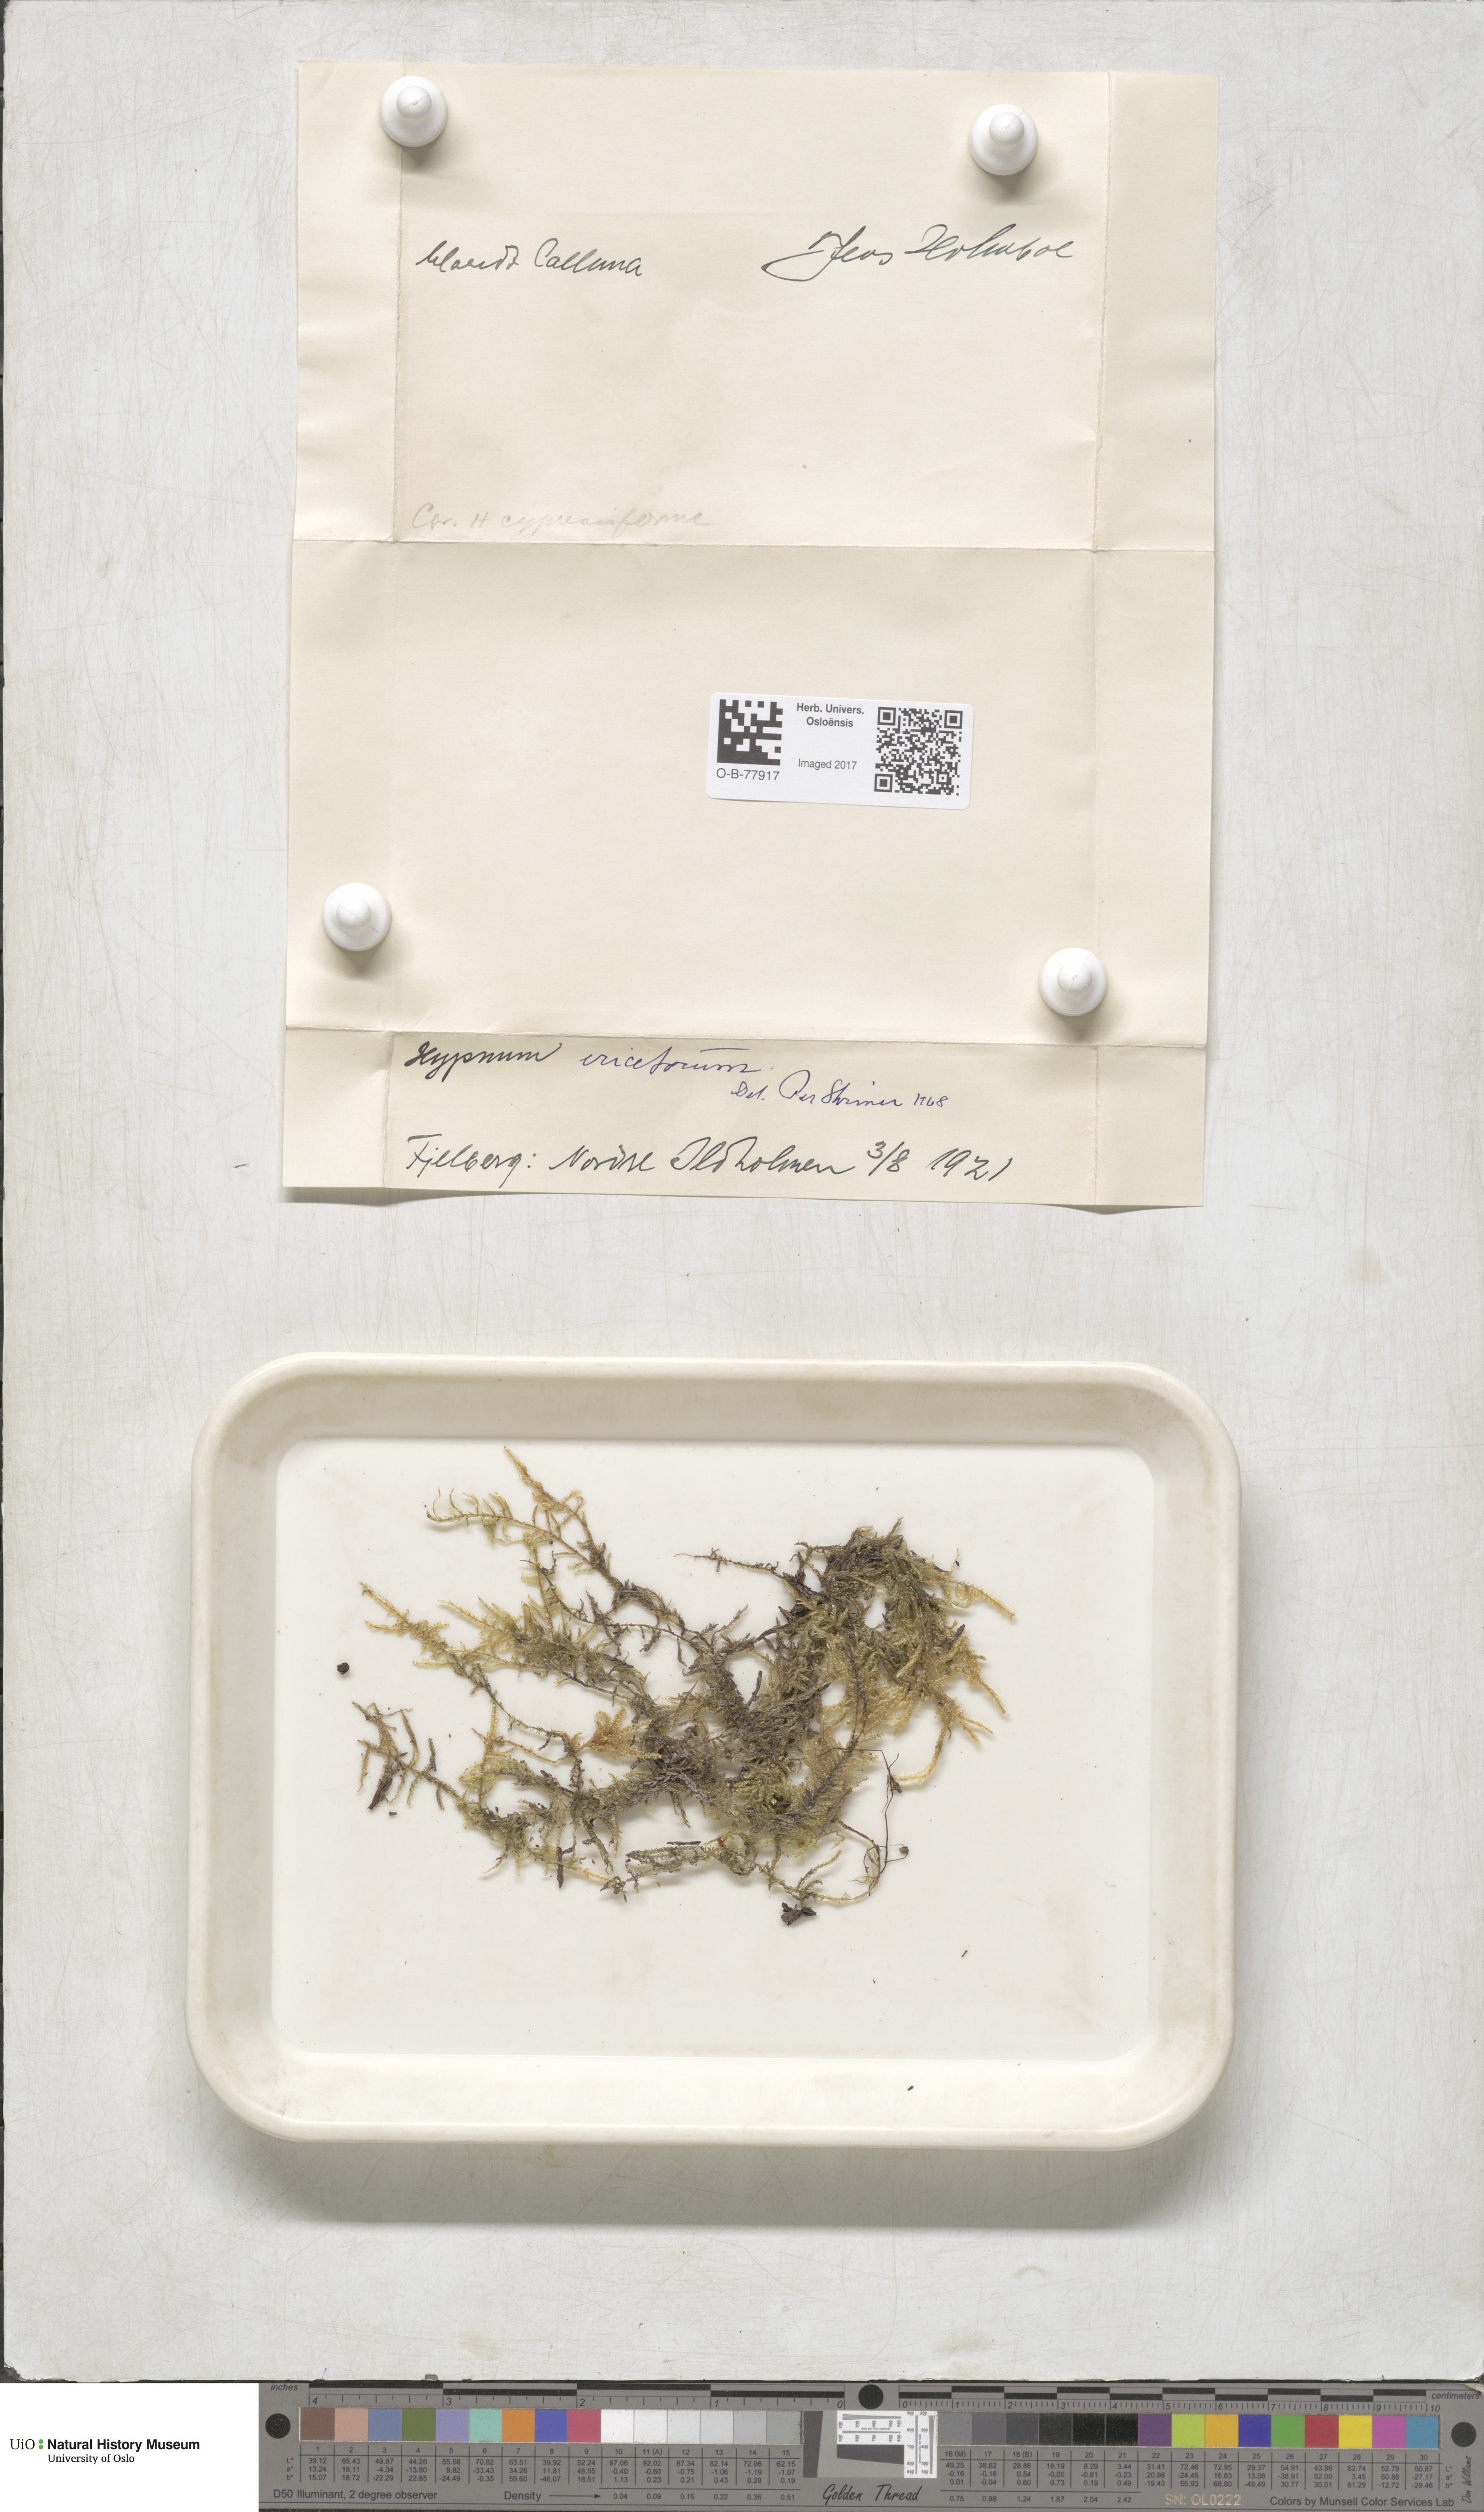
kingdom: Plantae
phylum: Bryophyta
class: Bryopsida
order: Hypnales
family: Hypnaceae
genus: Hypnum
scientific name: Hypnum jutlandicum
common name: Heath plait-moss
